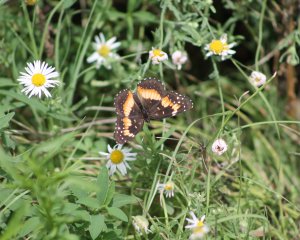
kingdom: Animalia
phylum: Arthropoda
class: Insecta
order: Lepidoptera
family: Nymphalidae
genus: Chlosyne
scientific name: Chlosyne lacinia
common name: Bordered Patch
